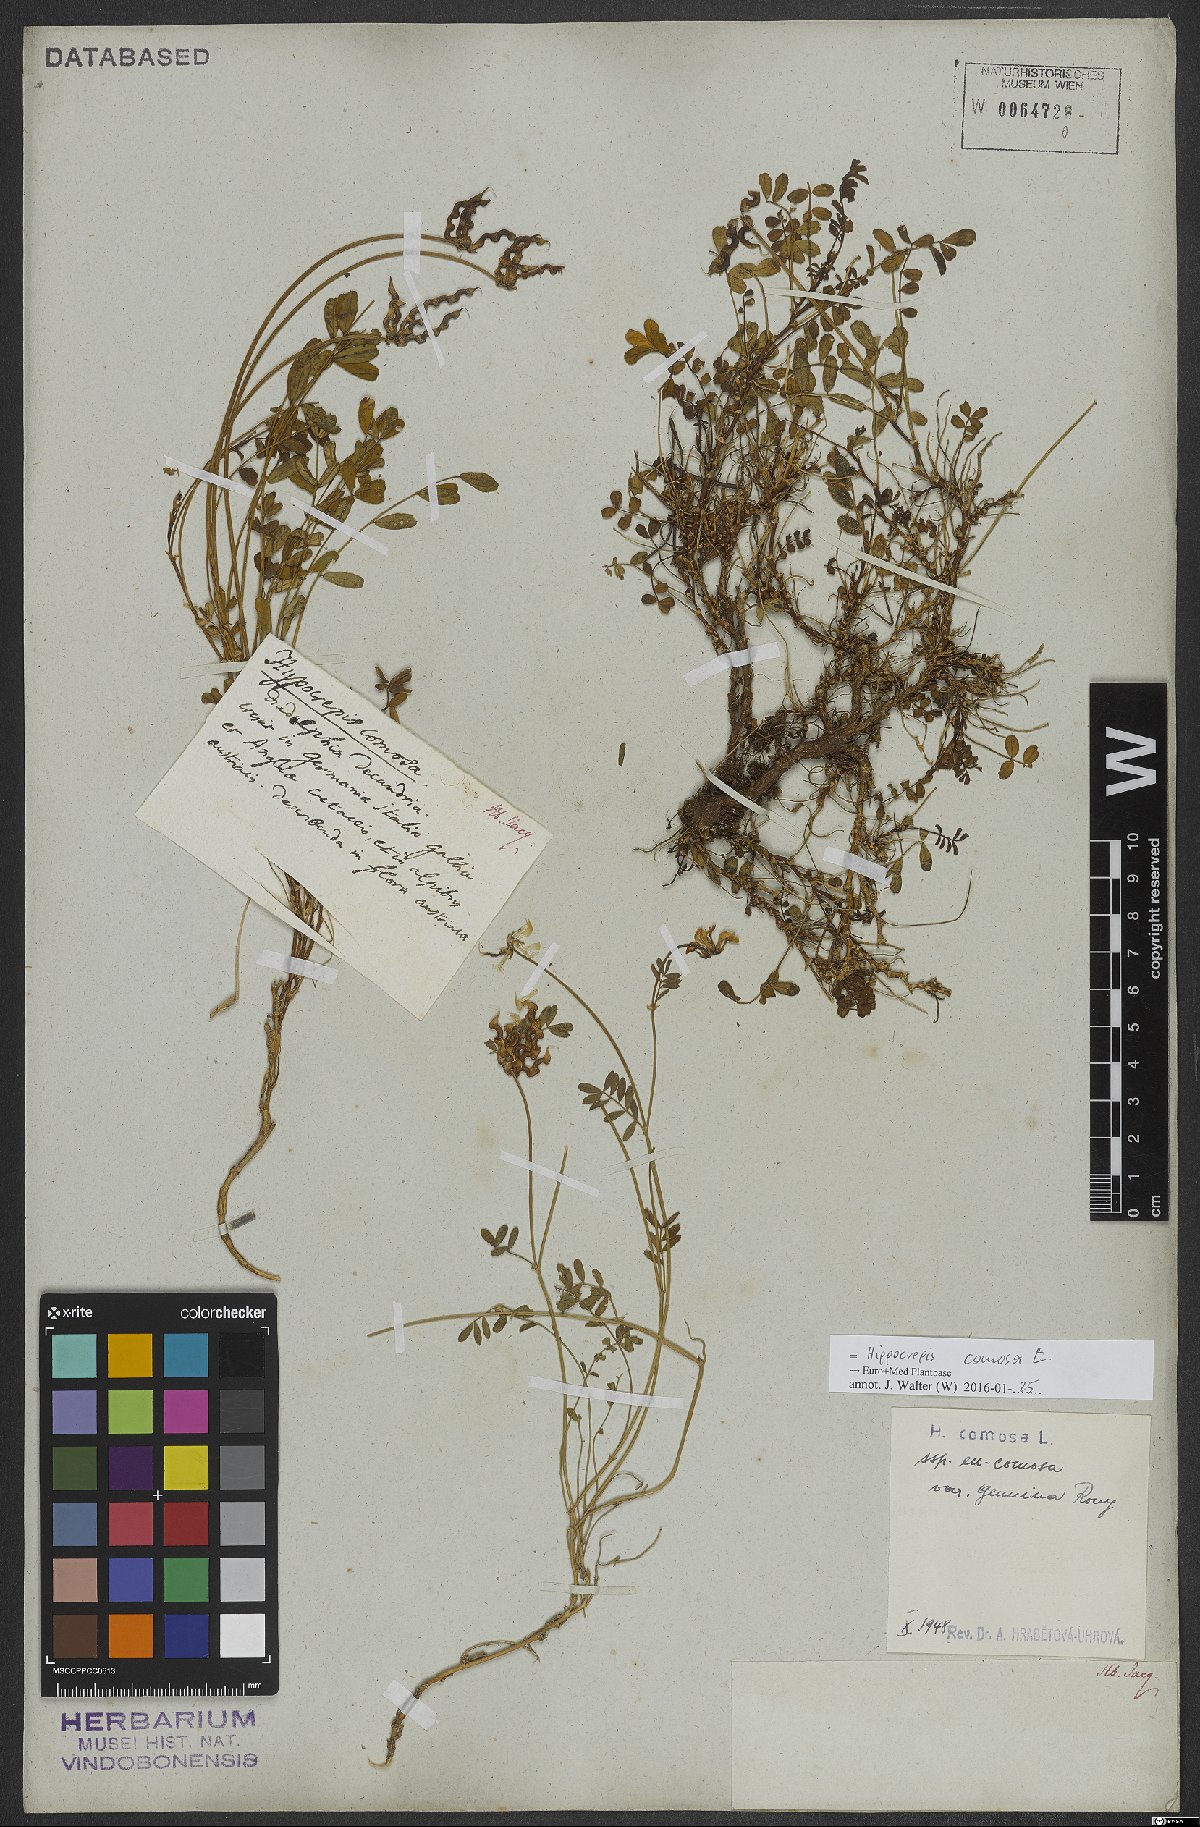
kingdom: Plantae
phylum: Tracheophyta
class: Magnoliopsida
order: Fabales
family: Fabaceae
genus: Hippocrepis
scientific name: Hippocrepis comosa
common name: Horseshoe vetch
